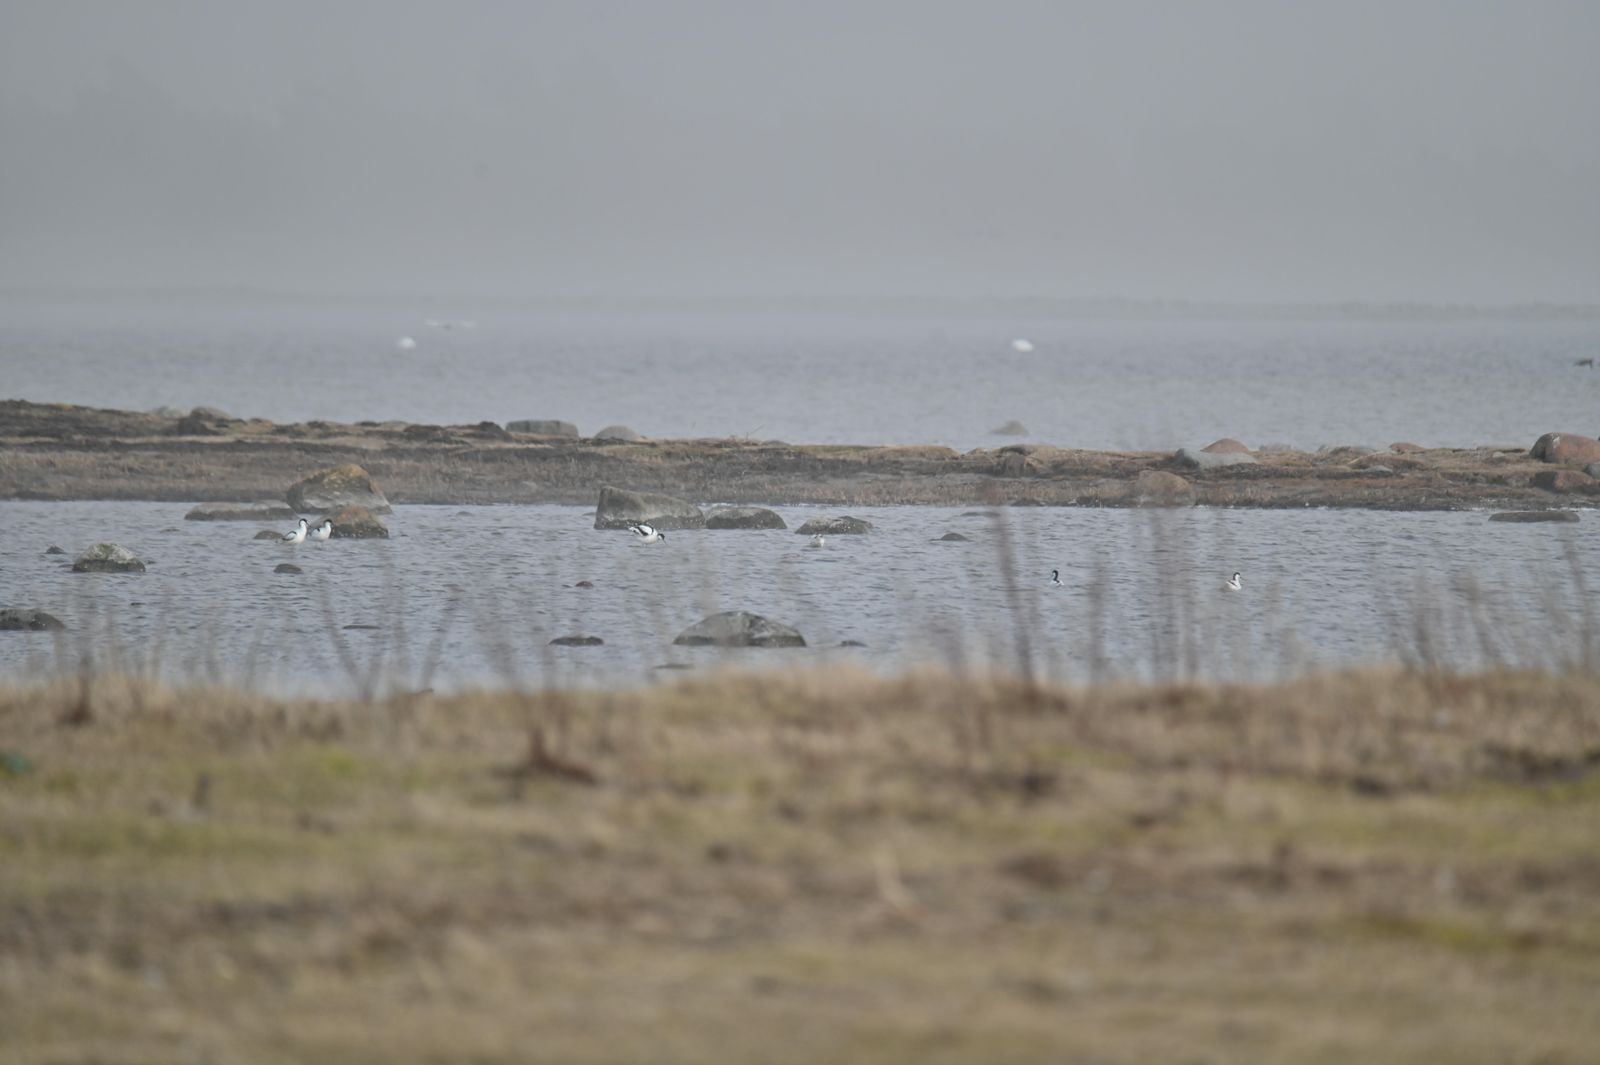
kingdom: Animalia
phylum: Chordata
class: Aves
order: Charadriiformes
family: Recurvirostridae
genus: Recurvirostra
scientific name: Recurvirostra avosetta
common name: Pied avocet
